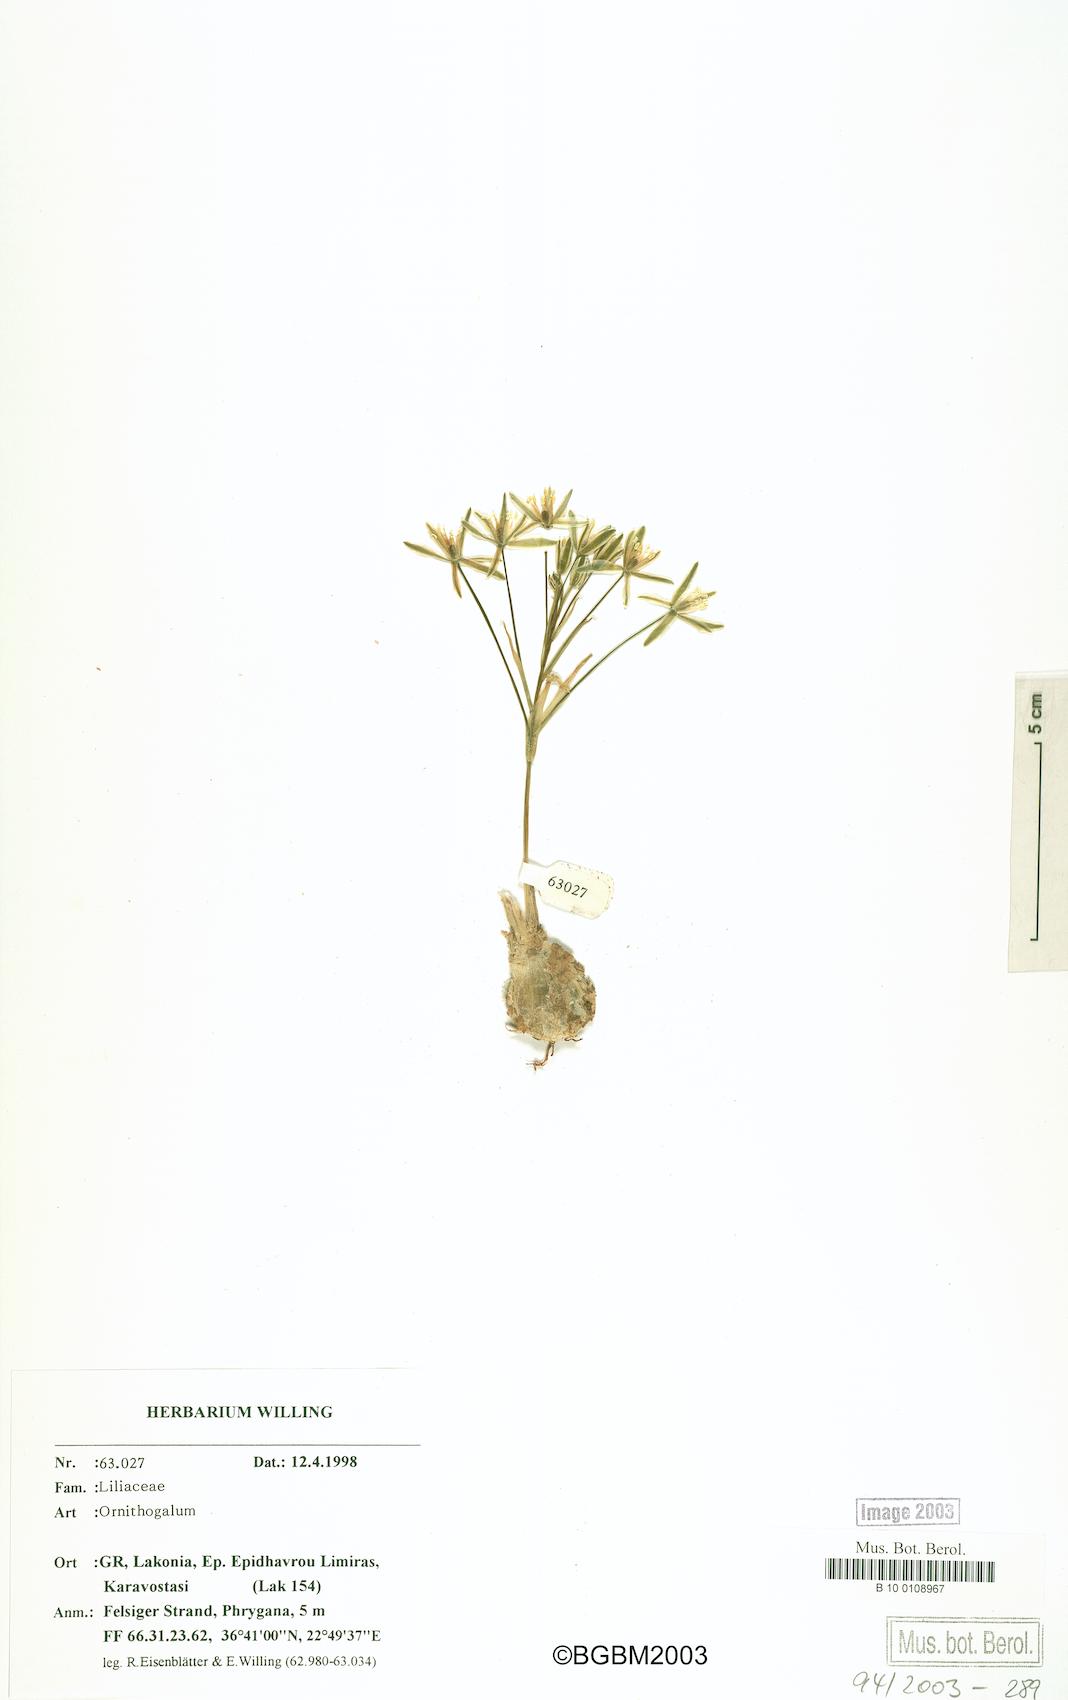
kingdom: Plantae
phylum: Tracheophyta
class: Liliopsida
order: Asparagales
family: Asparagaceae
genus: Ornithogalum
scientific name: Ornithogalum gussonei
